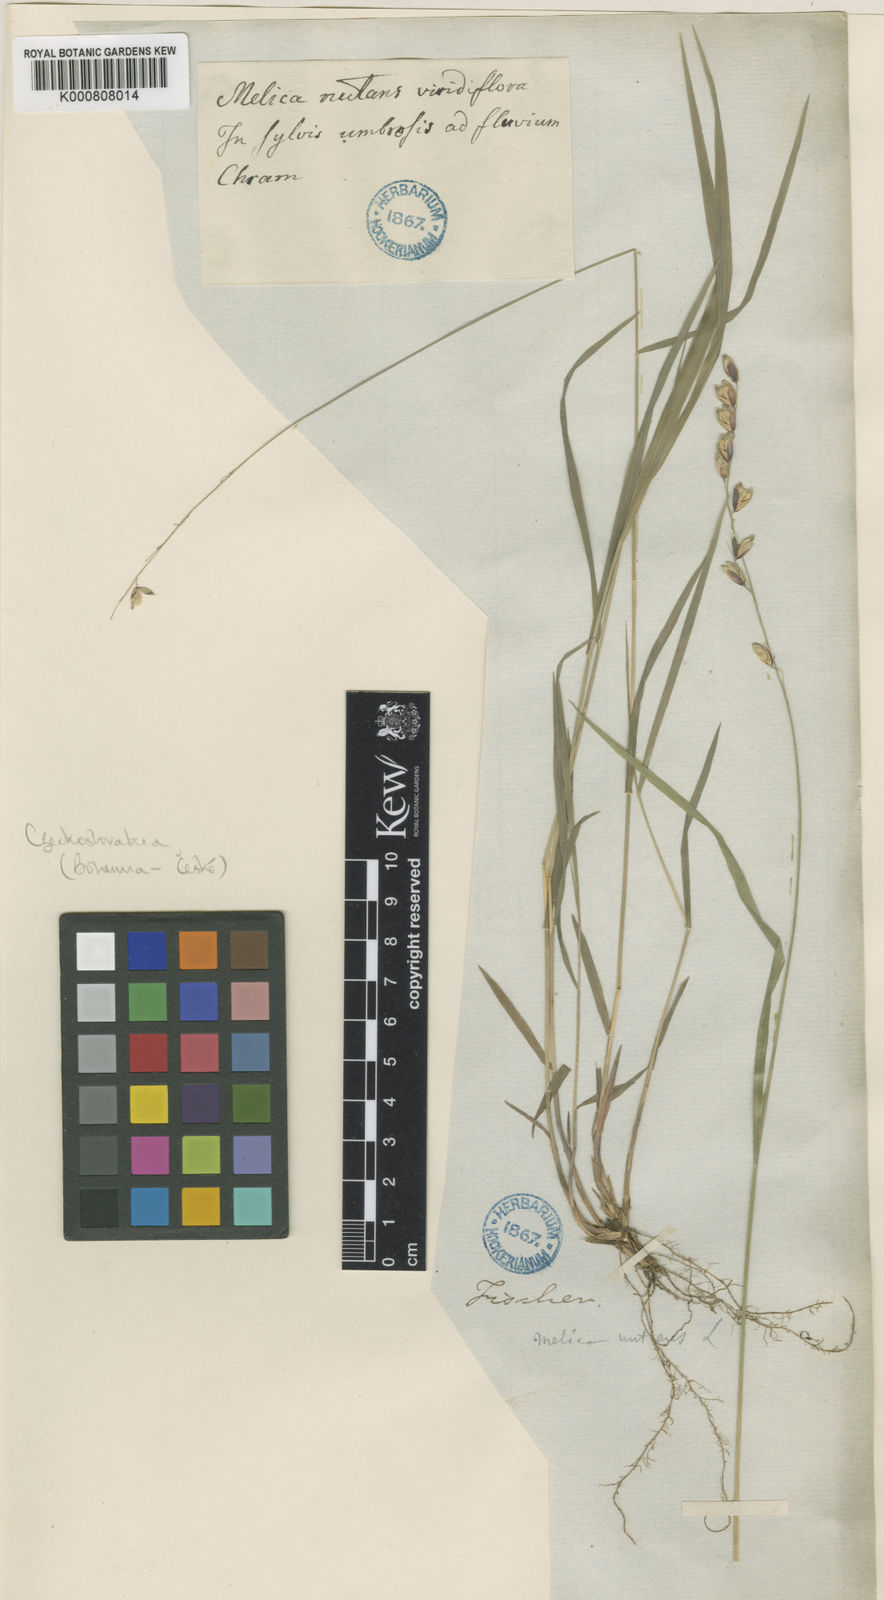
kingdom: Plantae
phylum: Tracheophyta
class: Liliopsida
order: Poales
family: Poaceae
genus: Melica
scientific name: Melica nutans
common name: Mountain melick
